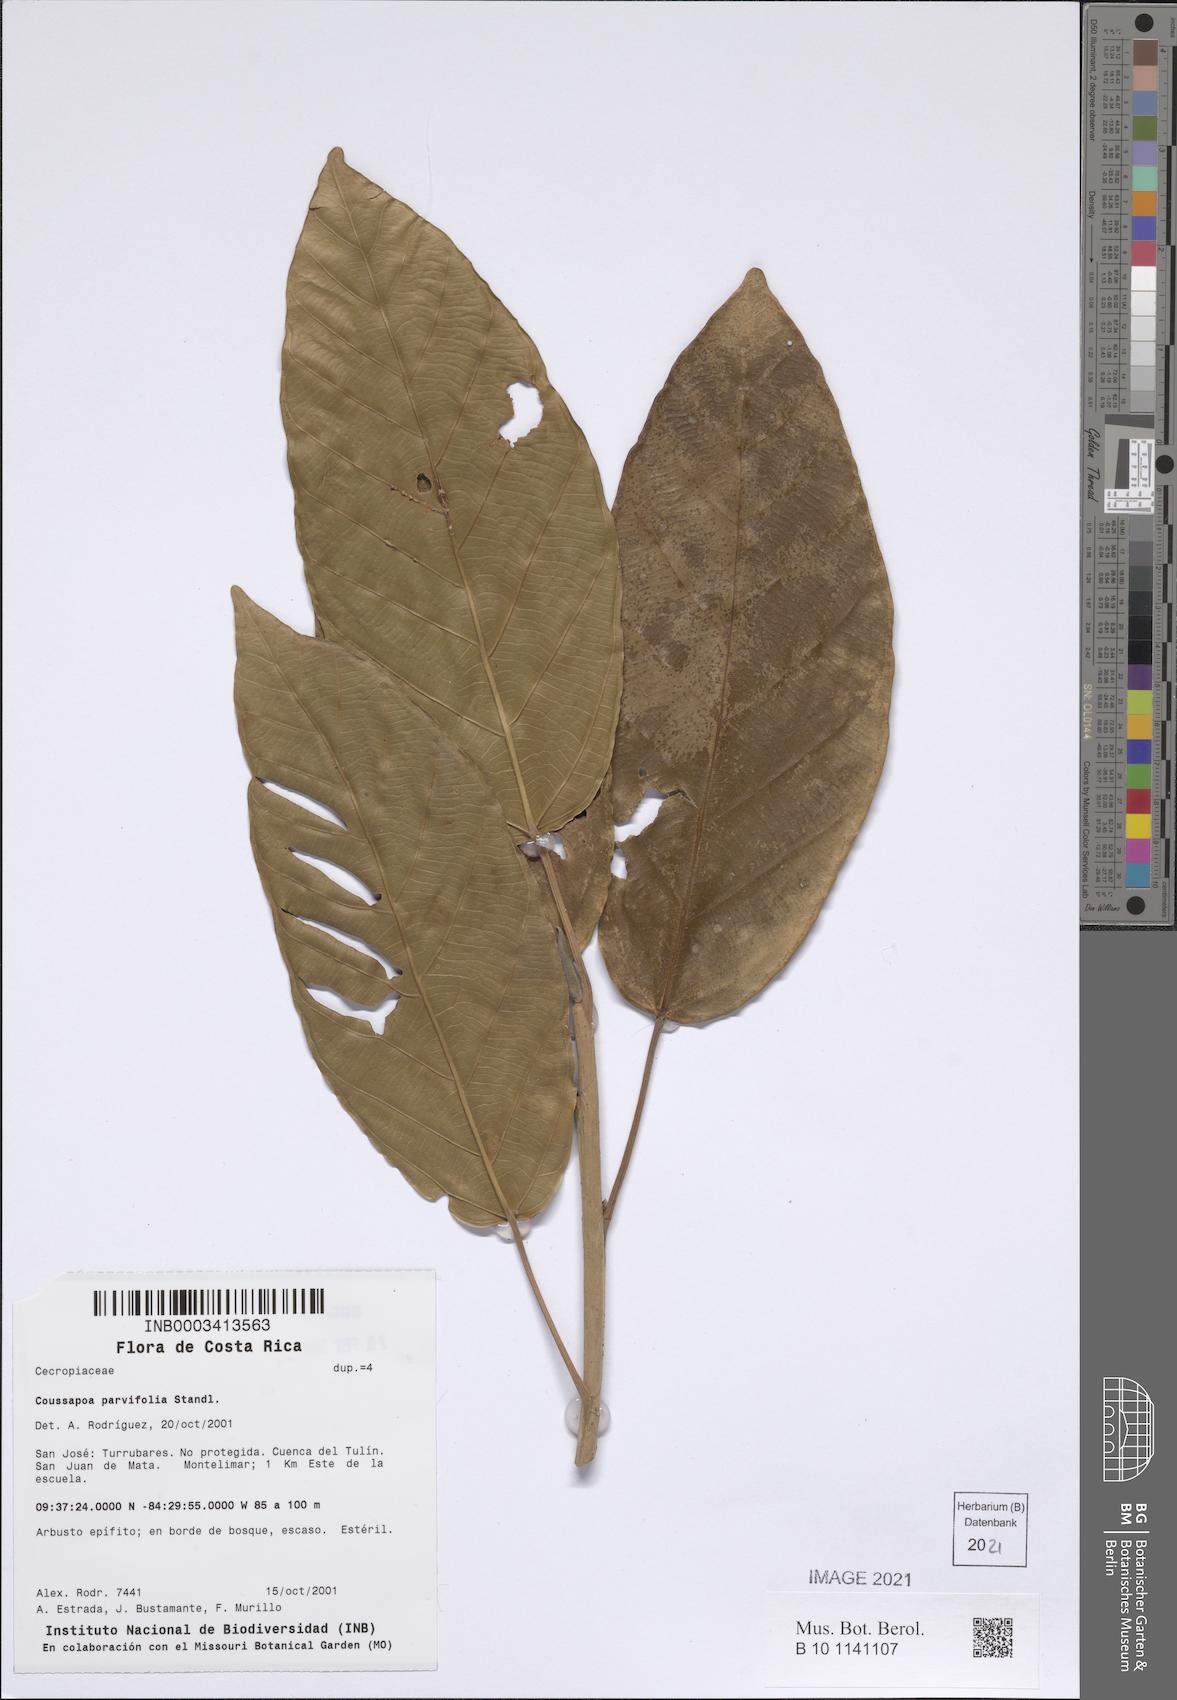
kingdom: Plantae
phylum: Tracheophyta
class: Magnoliopsida
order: Rosales
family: Urticaceae
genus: Coussapoa
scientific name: Coussapoa parvifolia
